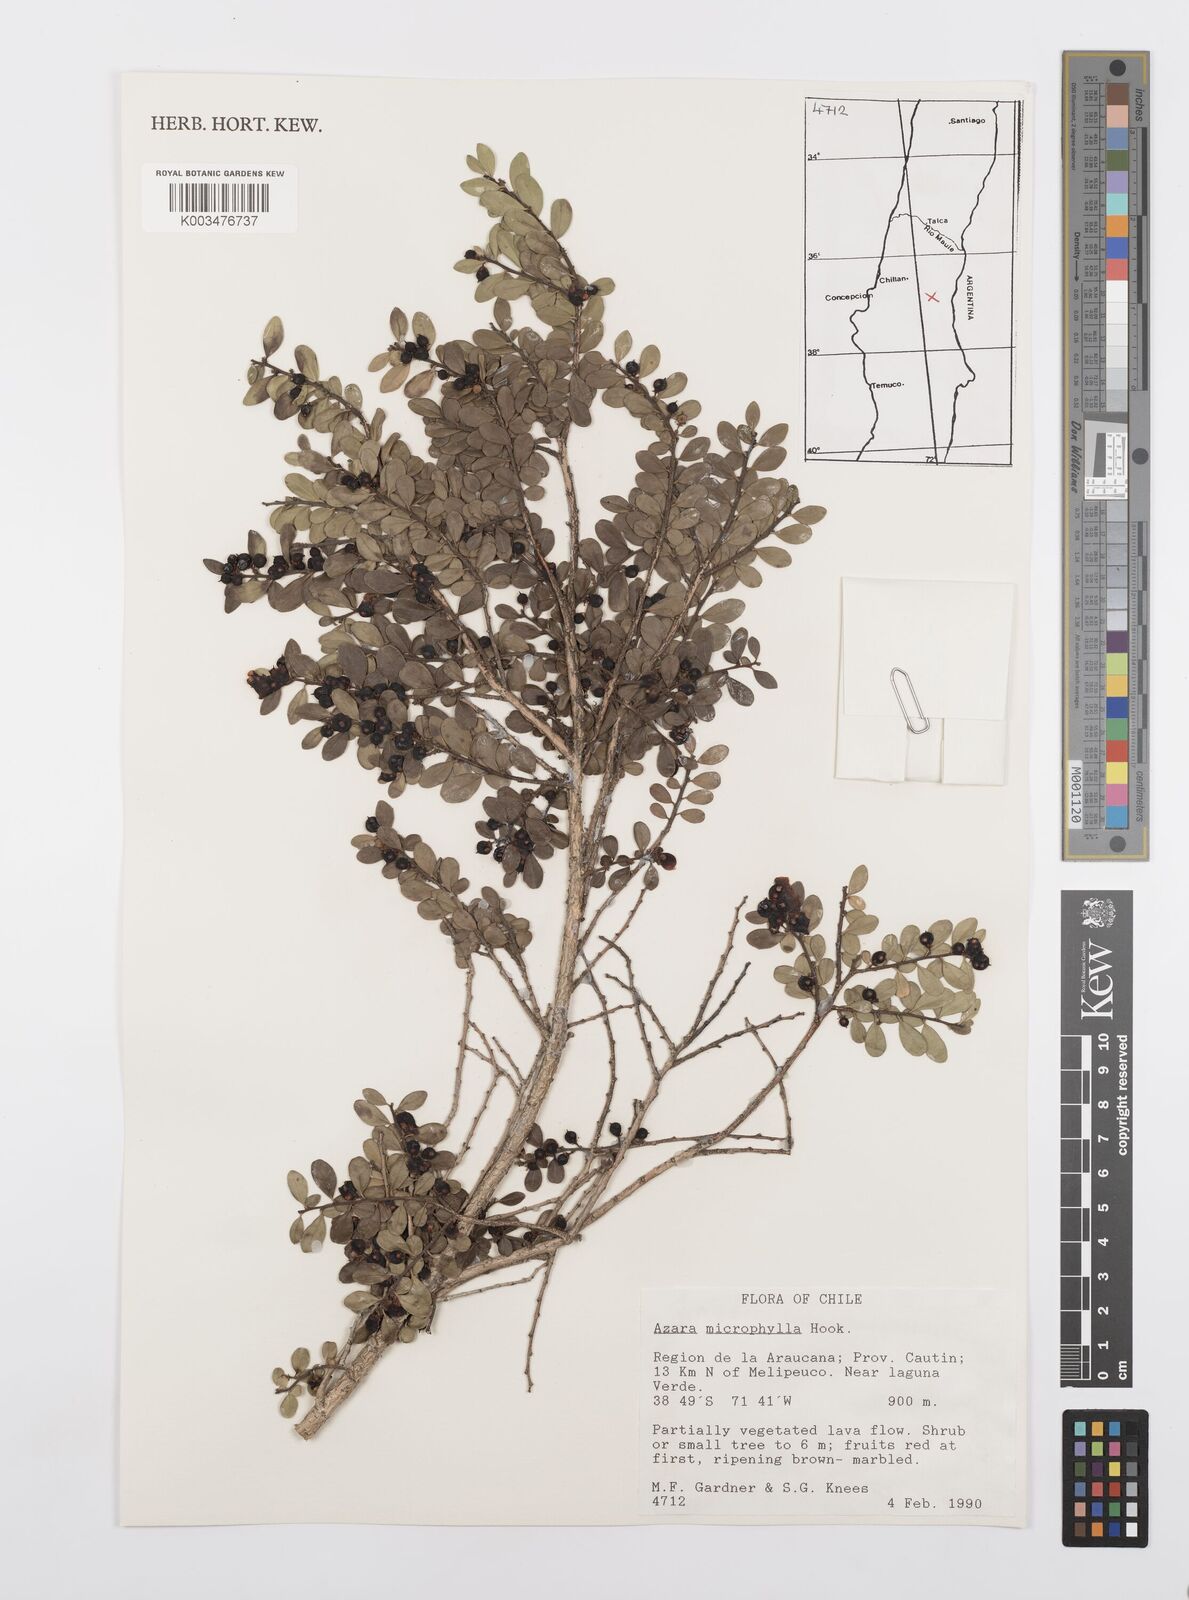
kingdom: Plantae
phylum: Tracheophyta
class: Magnoliopsida
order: Malpighiales
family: Salicaceae
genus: Azara
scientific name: Azara microphylla
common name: Box-leaf azara
